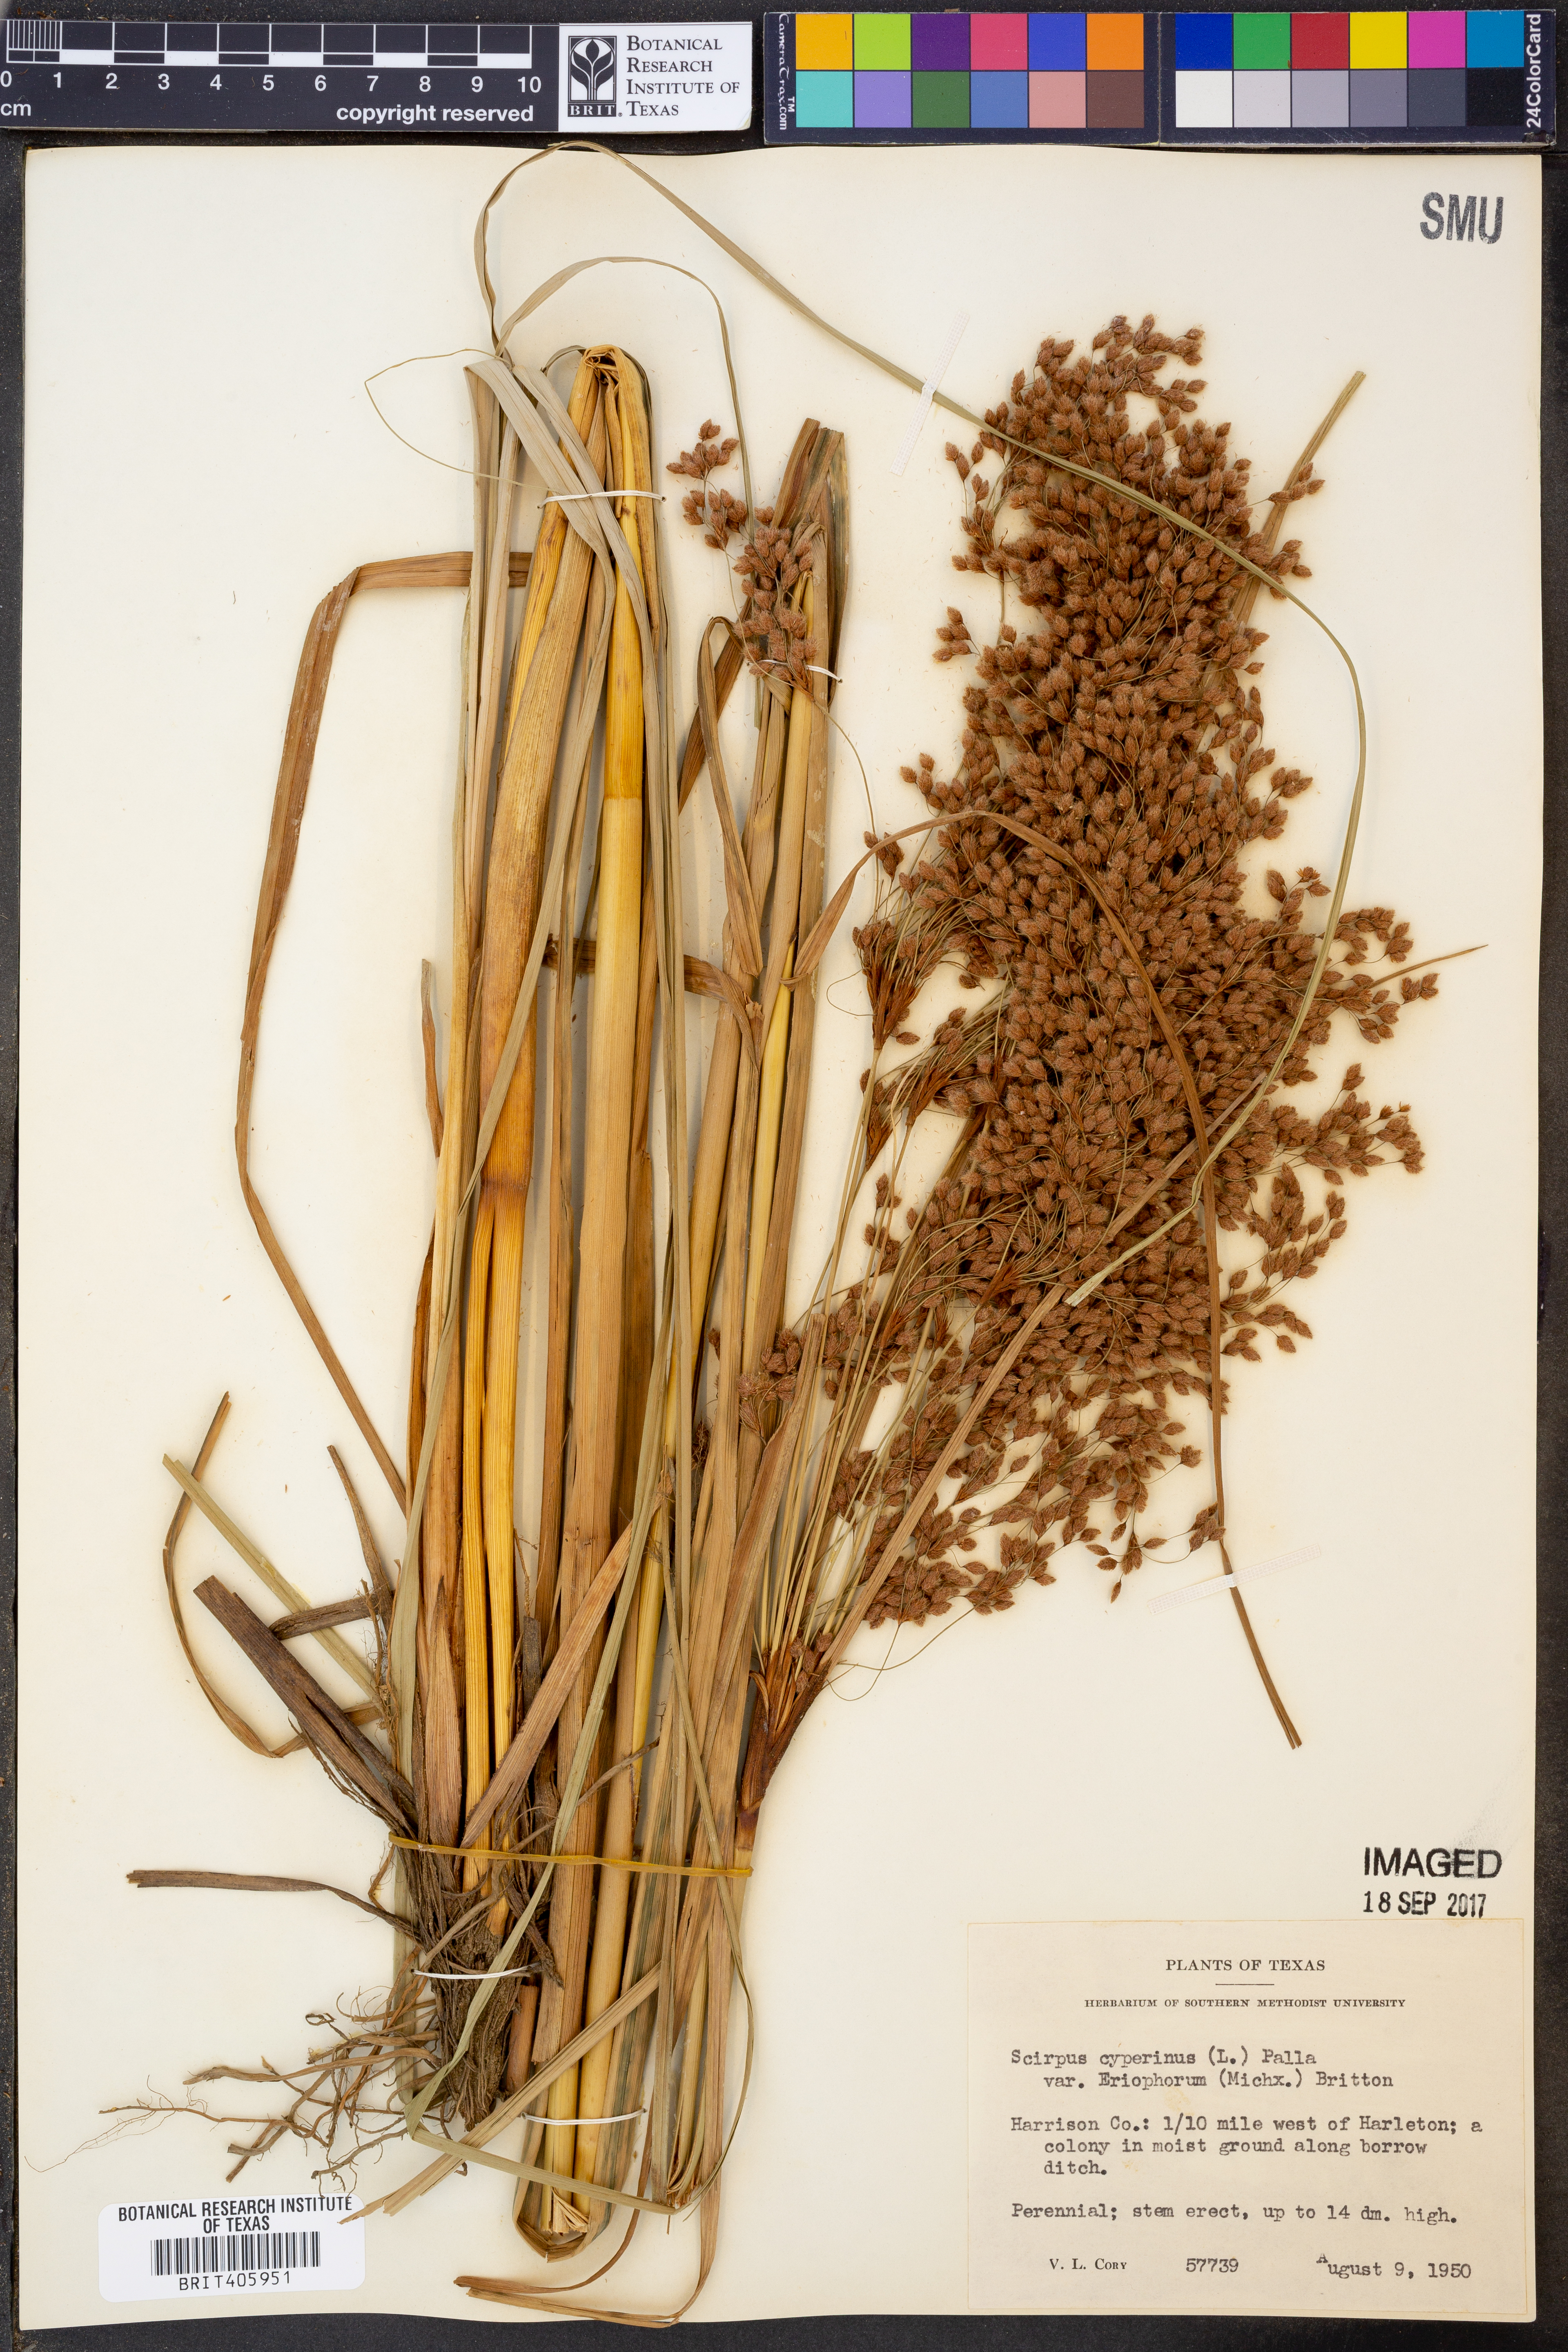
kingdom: Plantae
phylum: Tracheophyta
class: Liliopsida
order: Poales
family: Cyperaceae
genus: Scirpus
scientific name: Scirpus cyperinus
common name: Black-sheathed bulrush
